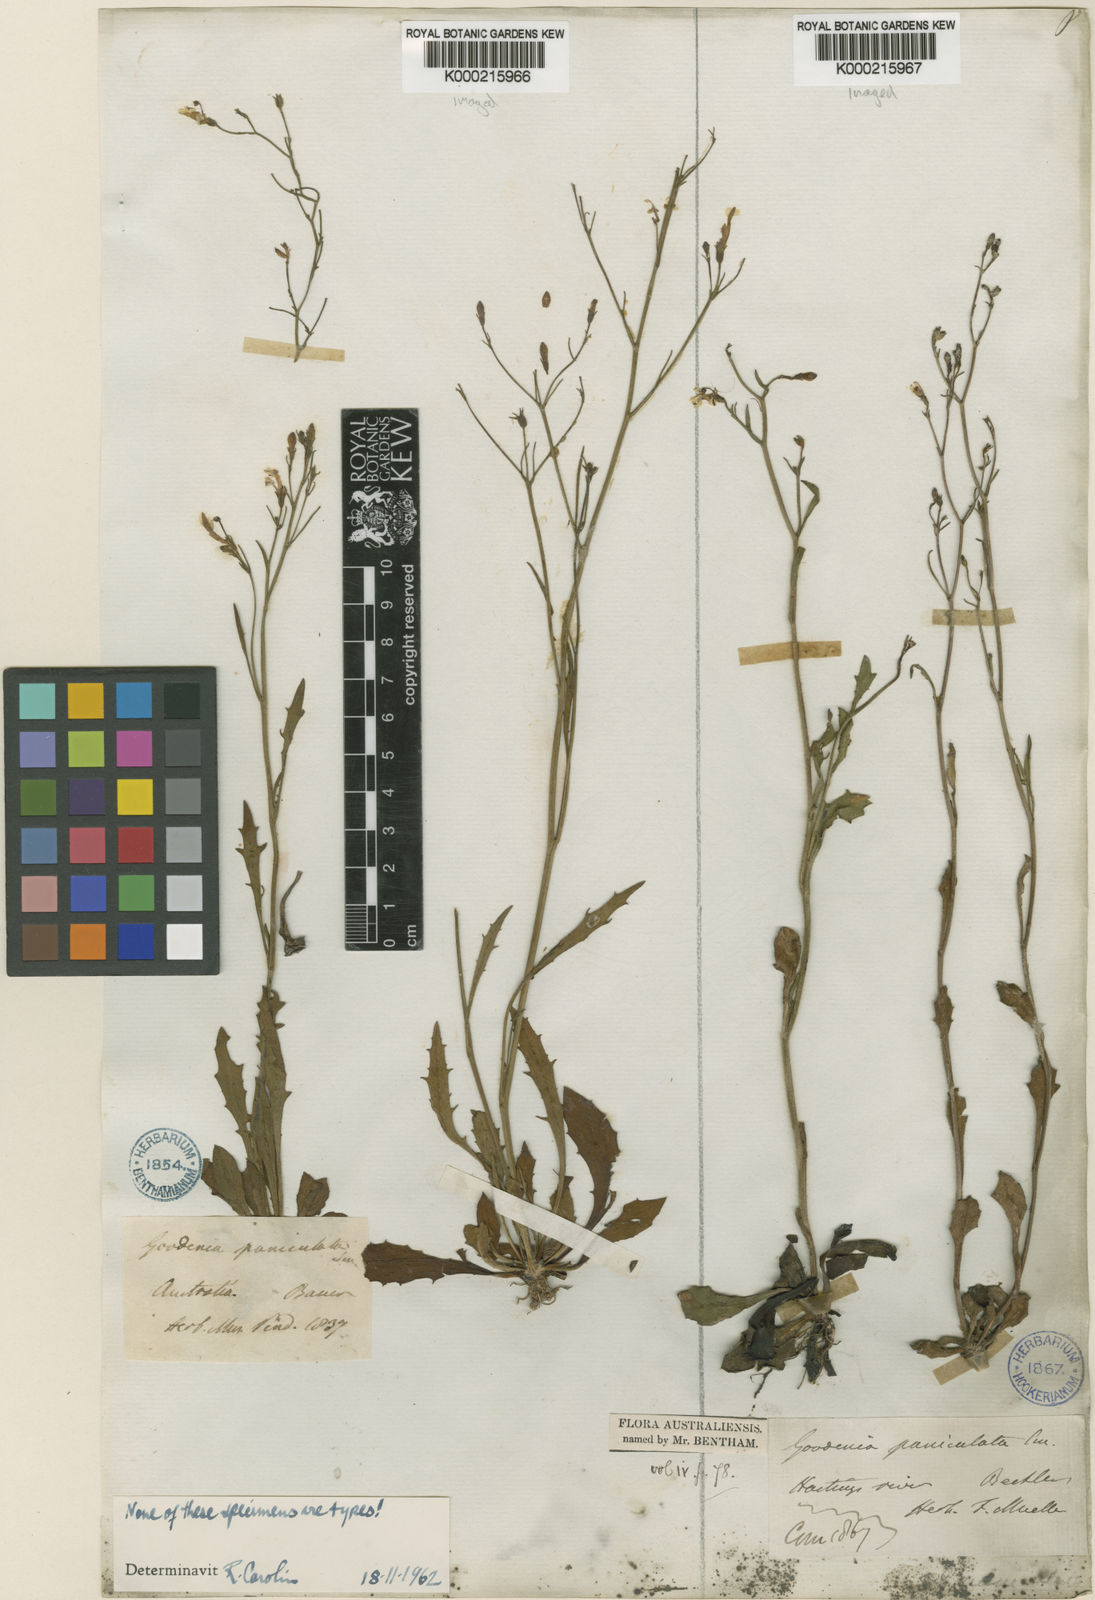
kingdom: Plantae
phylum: Tracheophyta
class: Magnoliopsida
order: Asterales
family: Goodeniaceae
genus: Goodenia
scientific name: Goodenia paniculata
